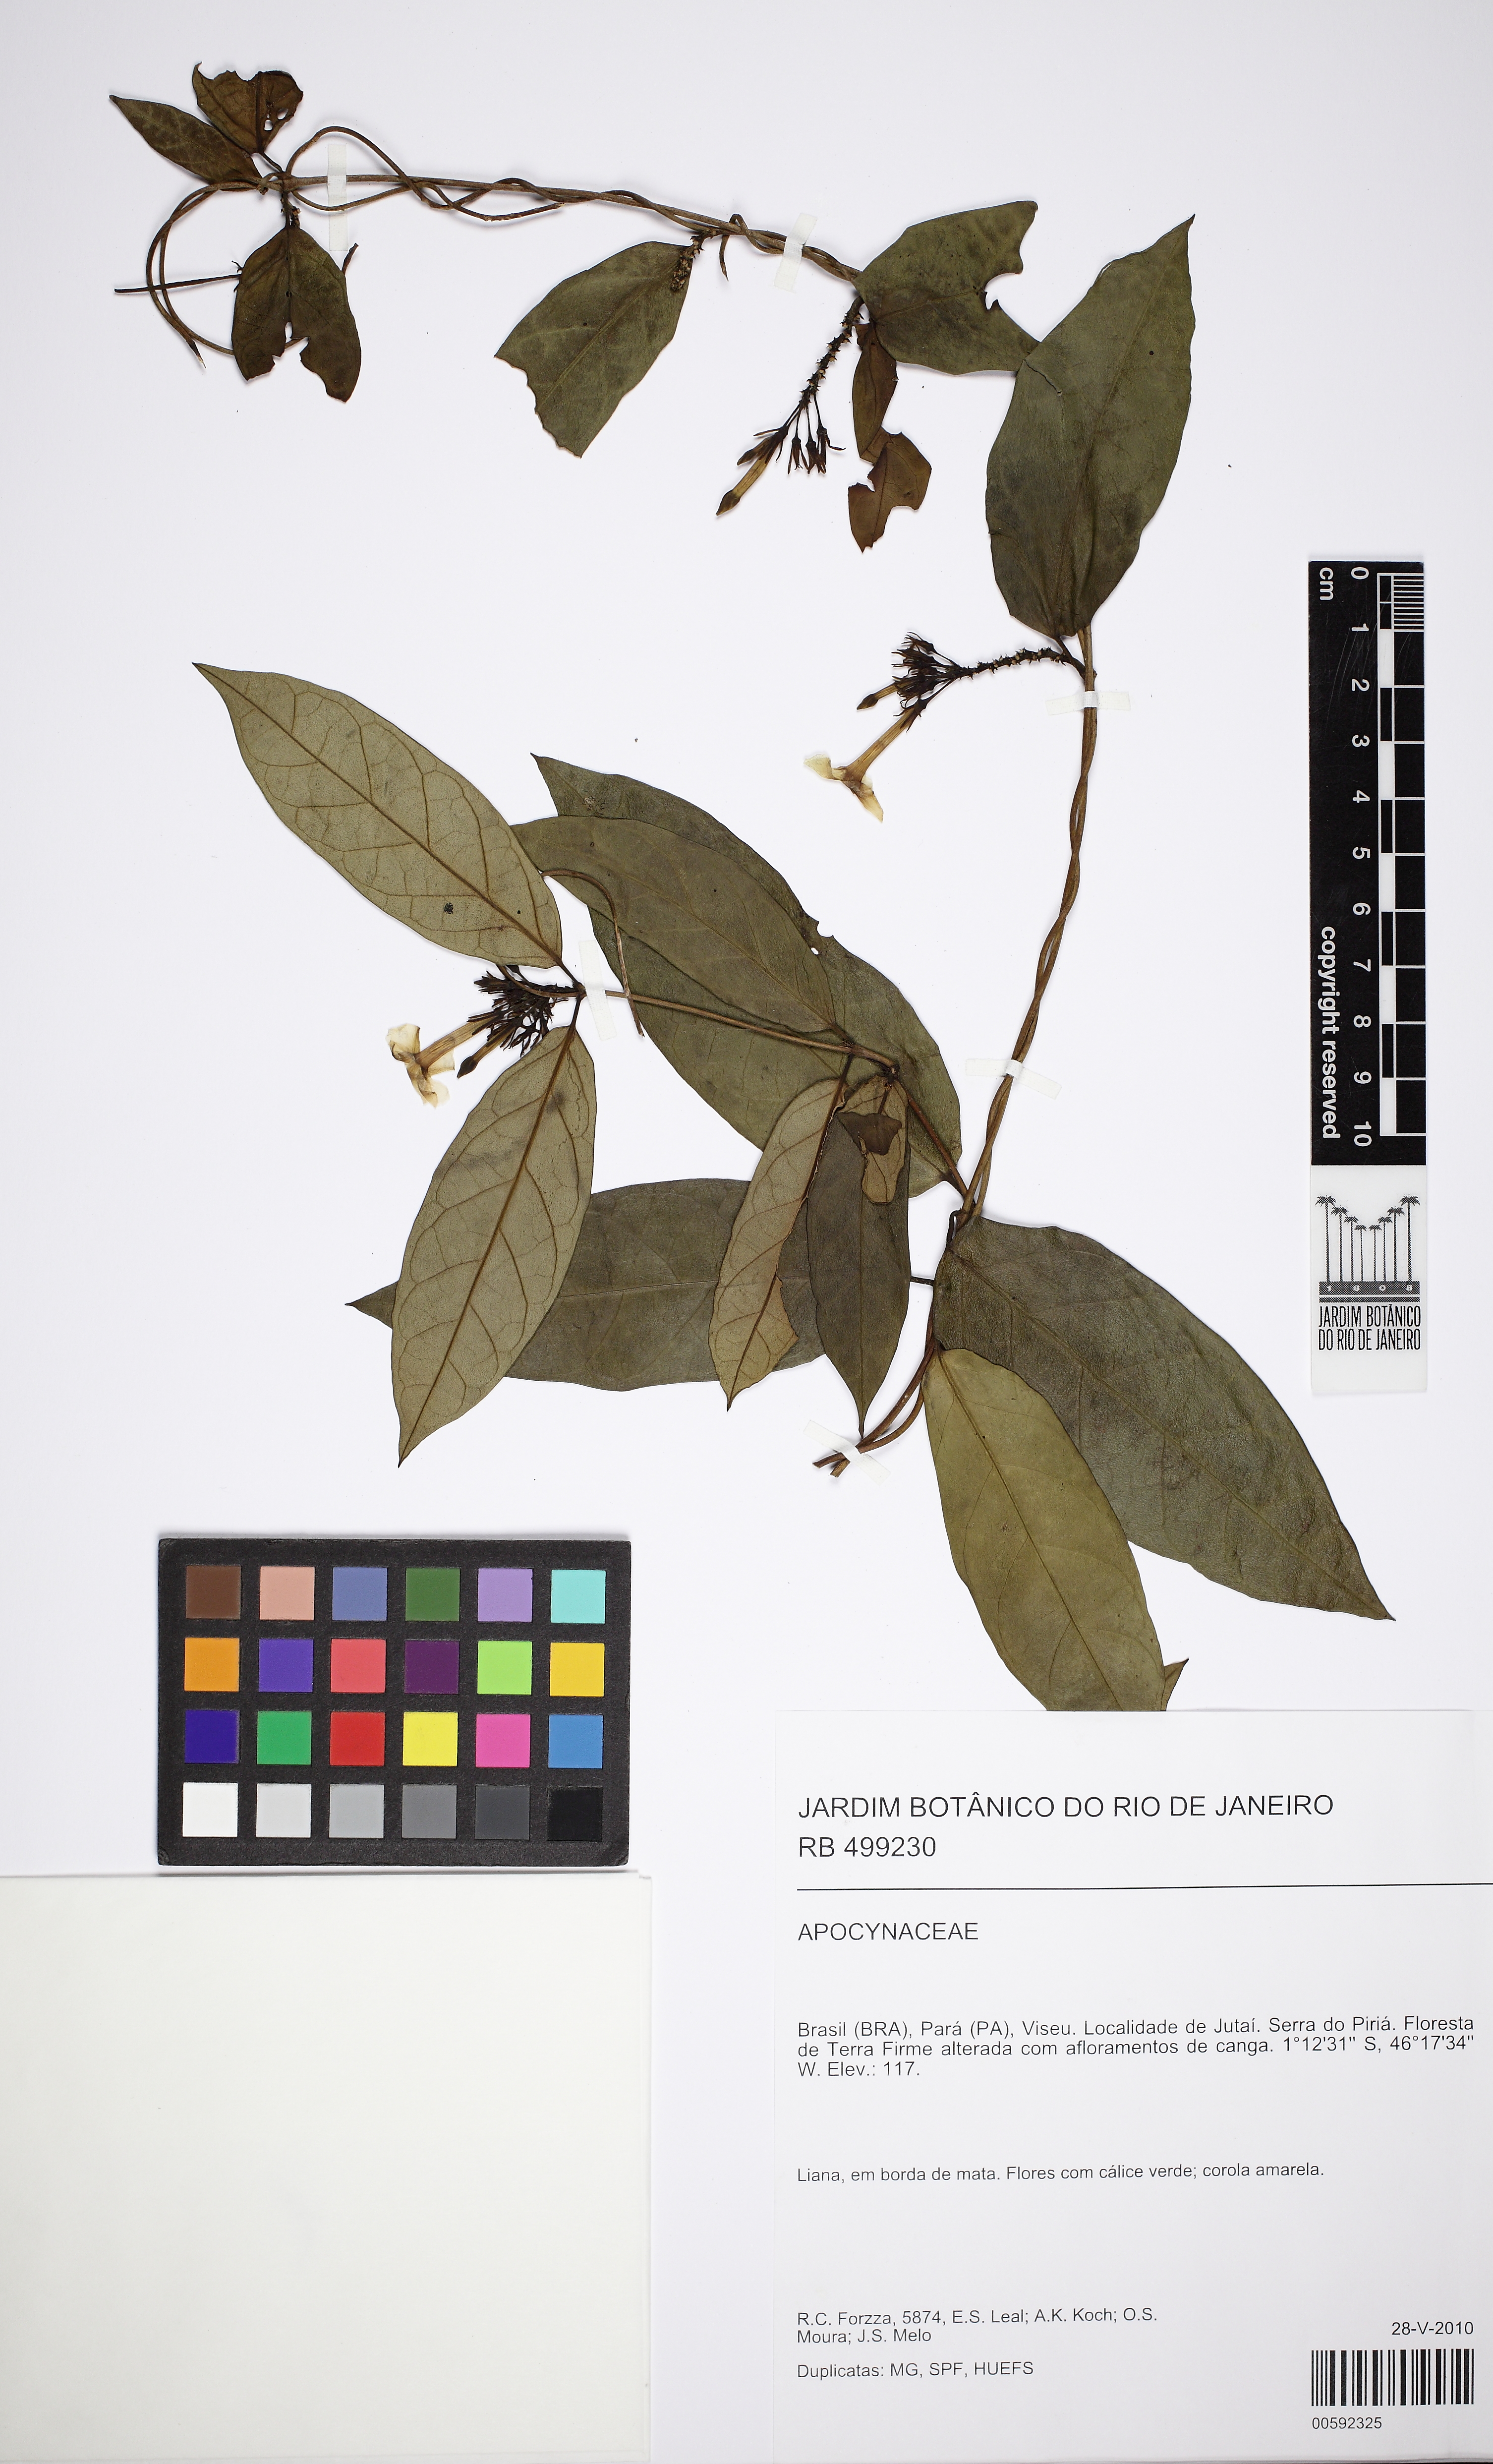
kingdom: Plantae
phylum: Tracheophyta
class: Magnoliopsida
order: Gentianales
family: Apocynaceae
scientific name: Apocynaceae
